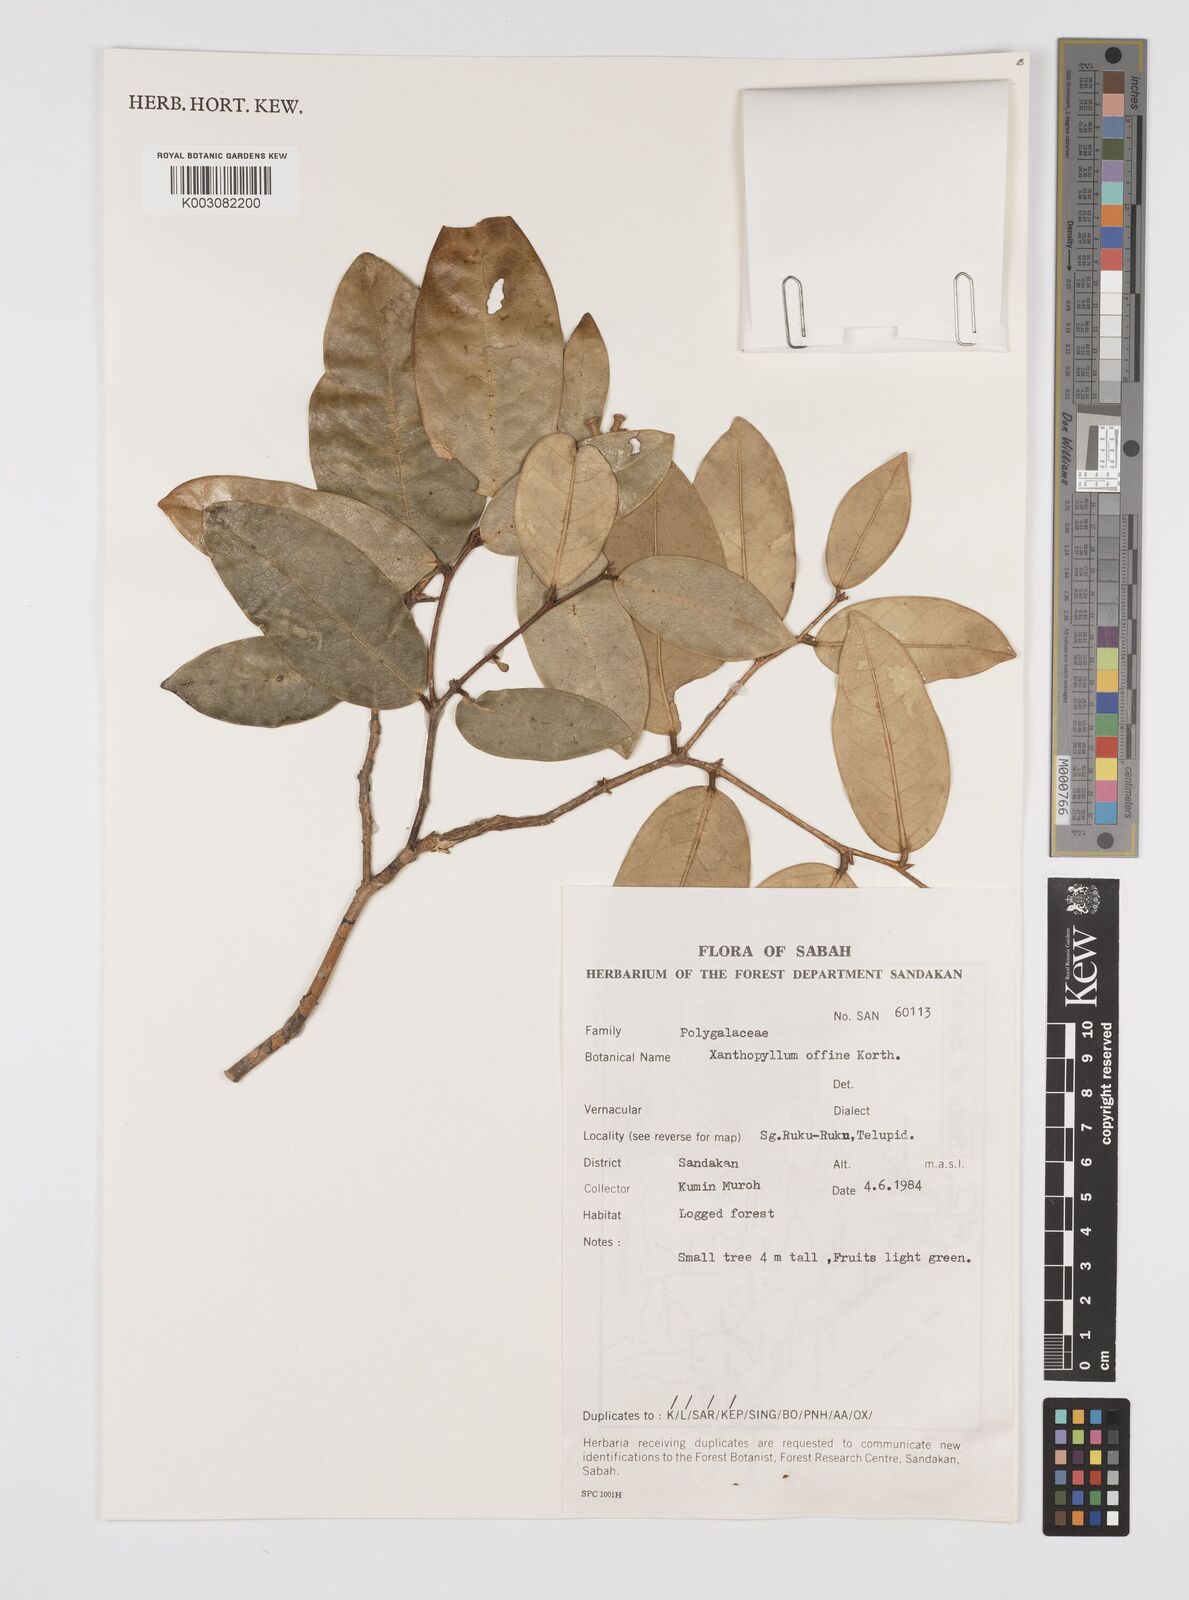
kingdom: Plantae
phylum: Tracheophyta
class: Magnoliopsida
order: Fabales
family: Polygalaceae
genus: Xanthophyllum
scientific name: Xanthophyllum flavescens
